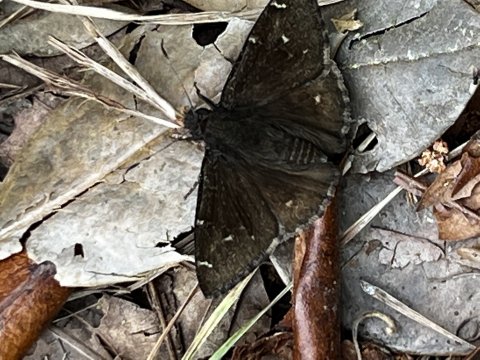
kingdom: Animalia
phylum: Arthropoda
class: Insecta
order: Lepidoptera
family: Hesperiidae
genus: Autochton
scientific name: Autochton
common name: Northern Cloudywing
